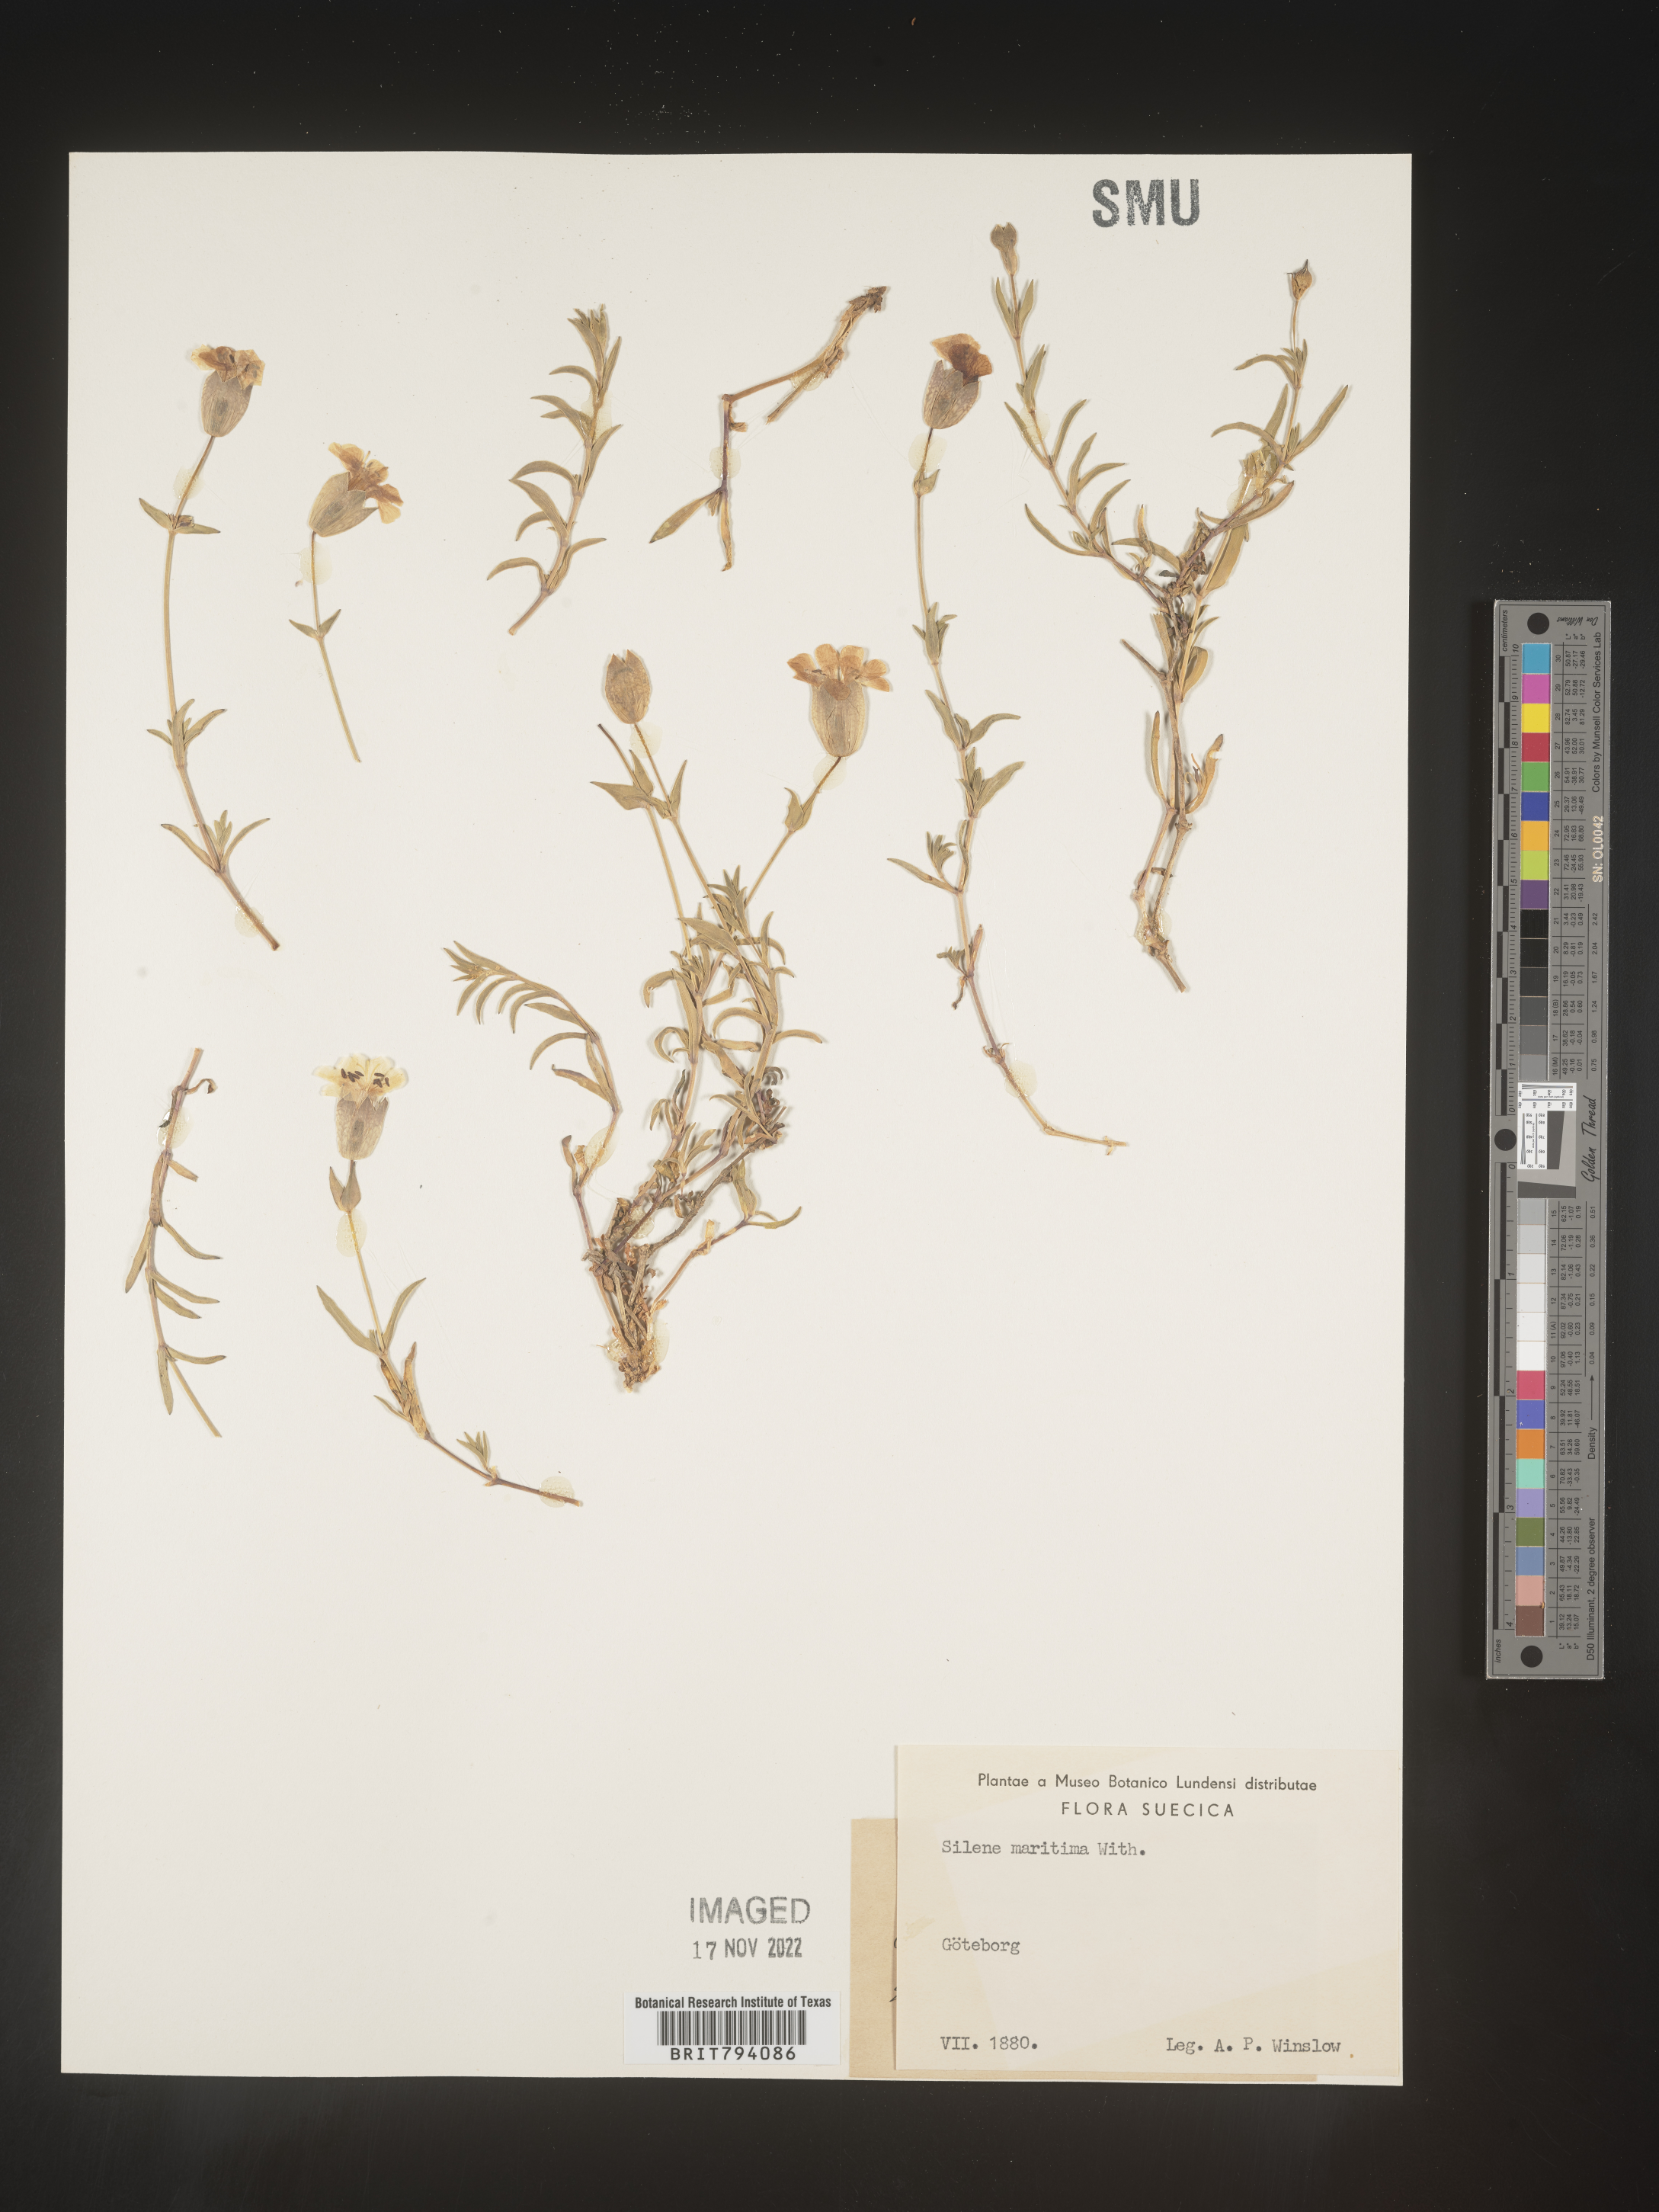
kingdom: Plantae
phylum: Tracheophyta
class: Magnoliopsida
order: Caryophyllales
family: Caryophyllaceae
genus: Silene
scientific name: Silene uniflora
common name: Sea campion
